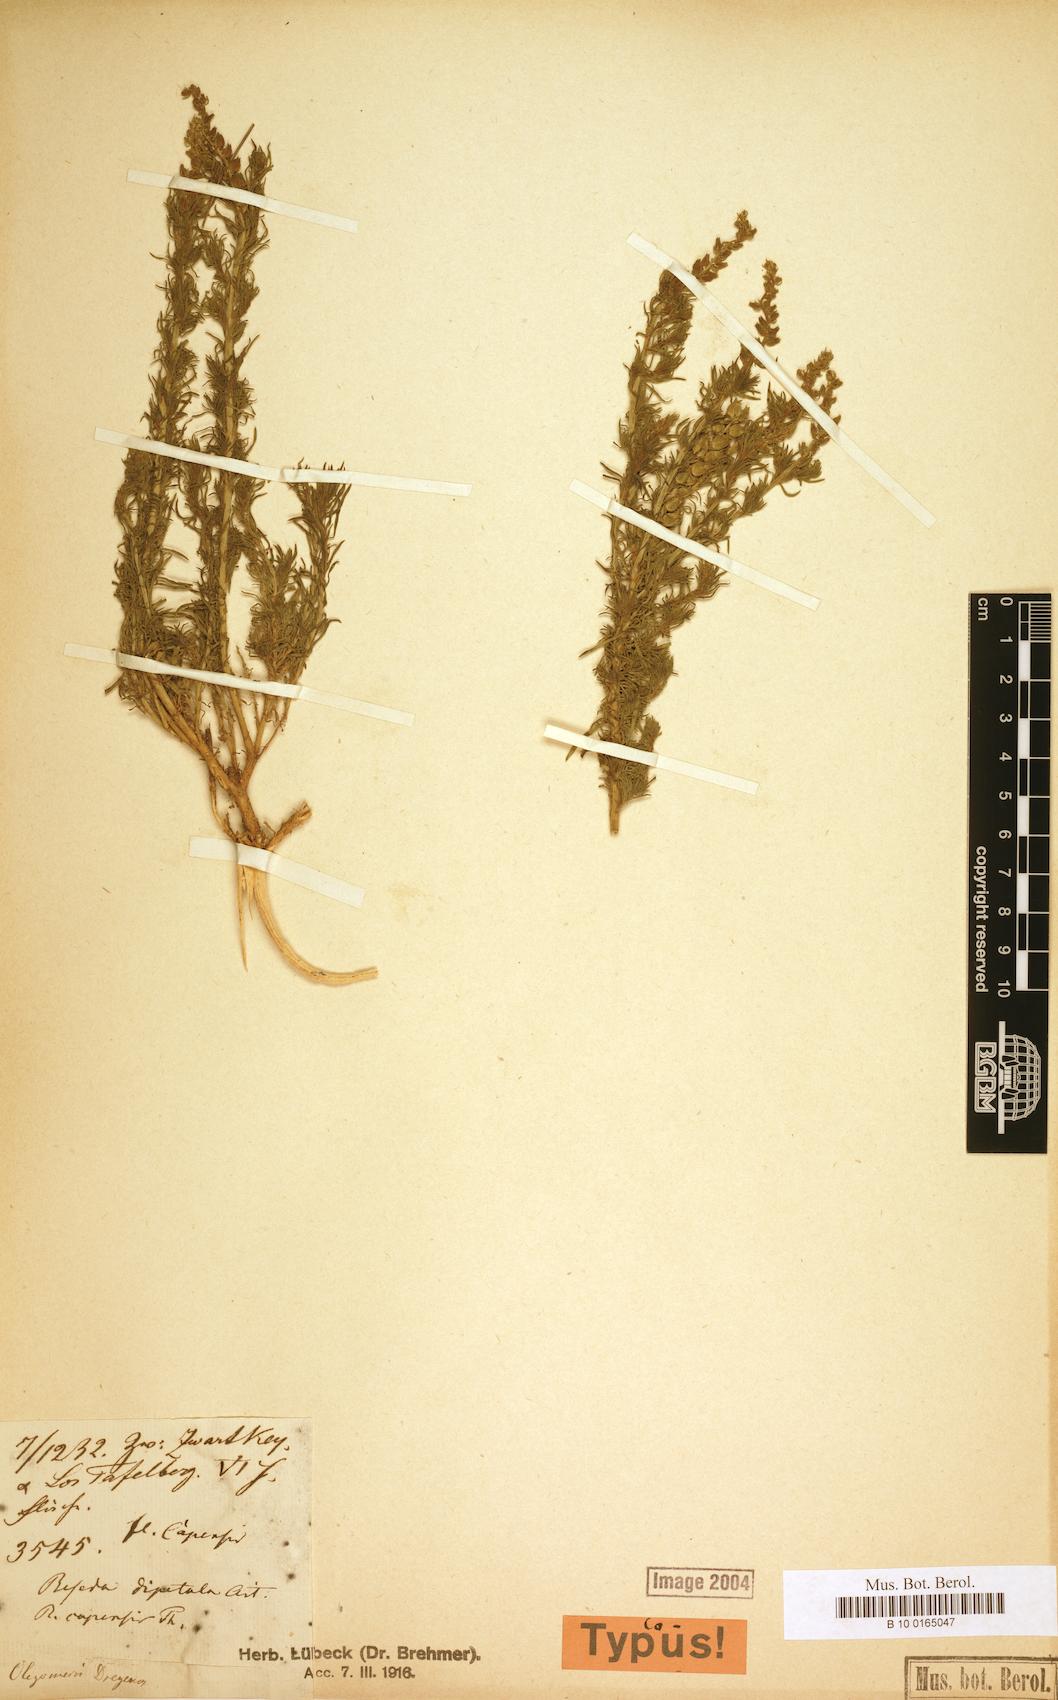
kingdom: Plantae
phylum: Tracheophyta
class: Magnoliopsida
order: Brassicales
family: Resedaceae
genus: Oligomeris
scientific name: Oligomeris dregeana
